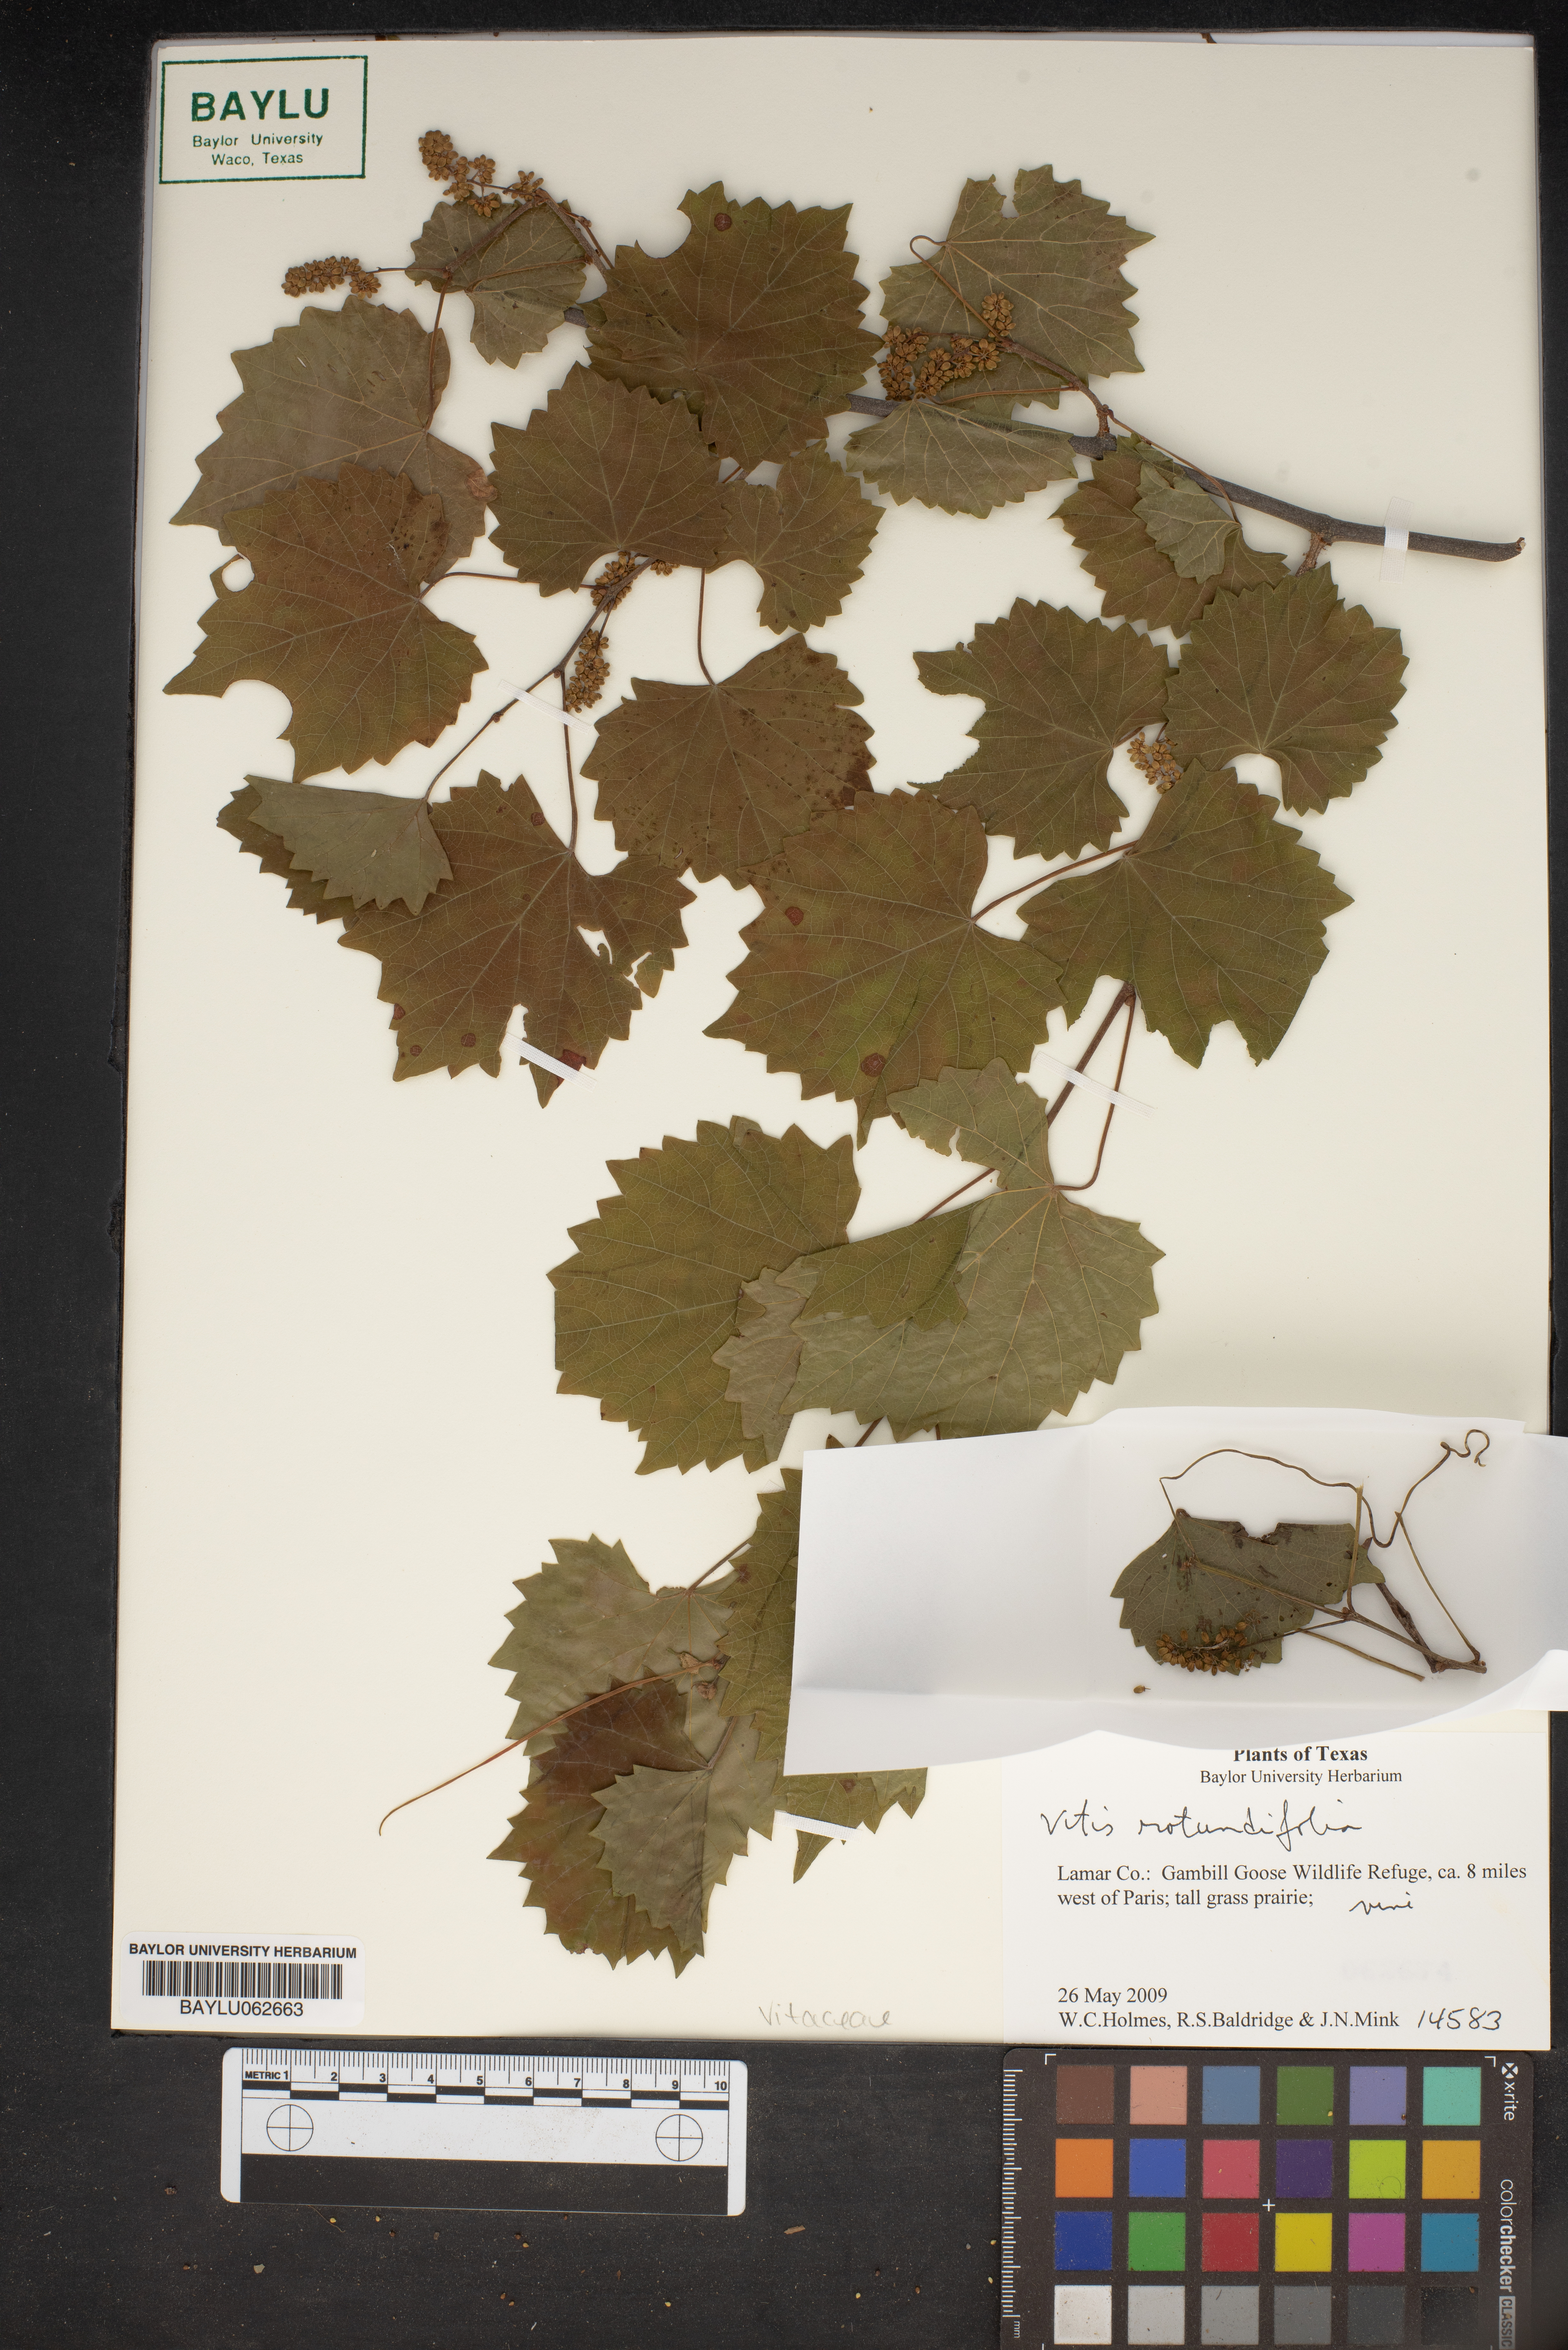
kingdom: Plantae
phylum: Tracheophyta
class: Magnoliopsida
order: Vitales
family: Vitaceae
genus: Vitis
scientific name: Vitis rotundifolia
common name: Muscadine grape
